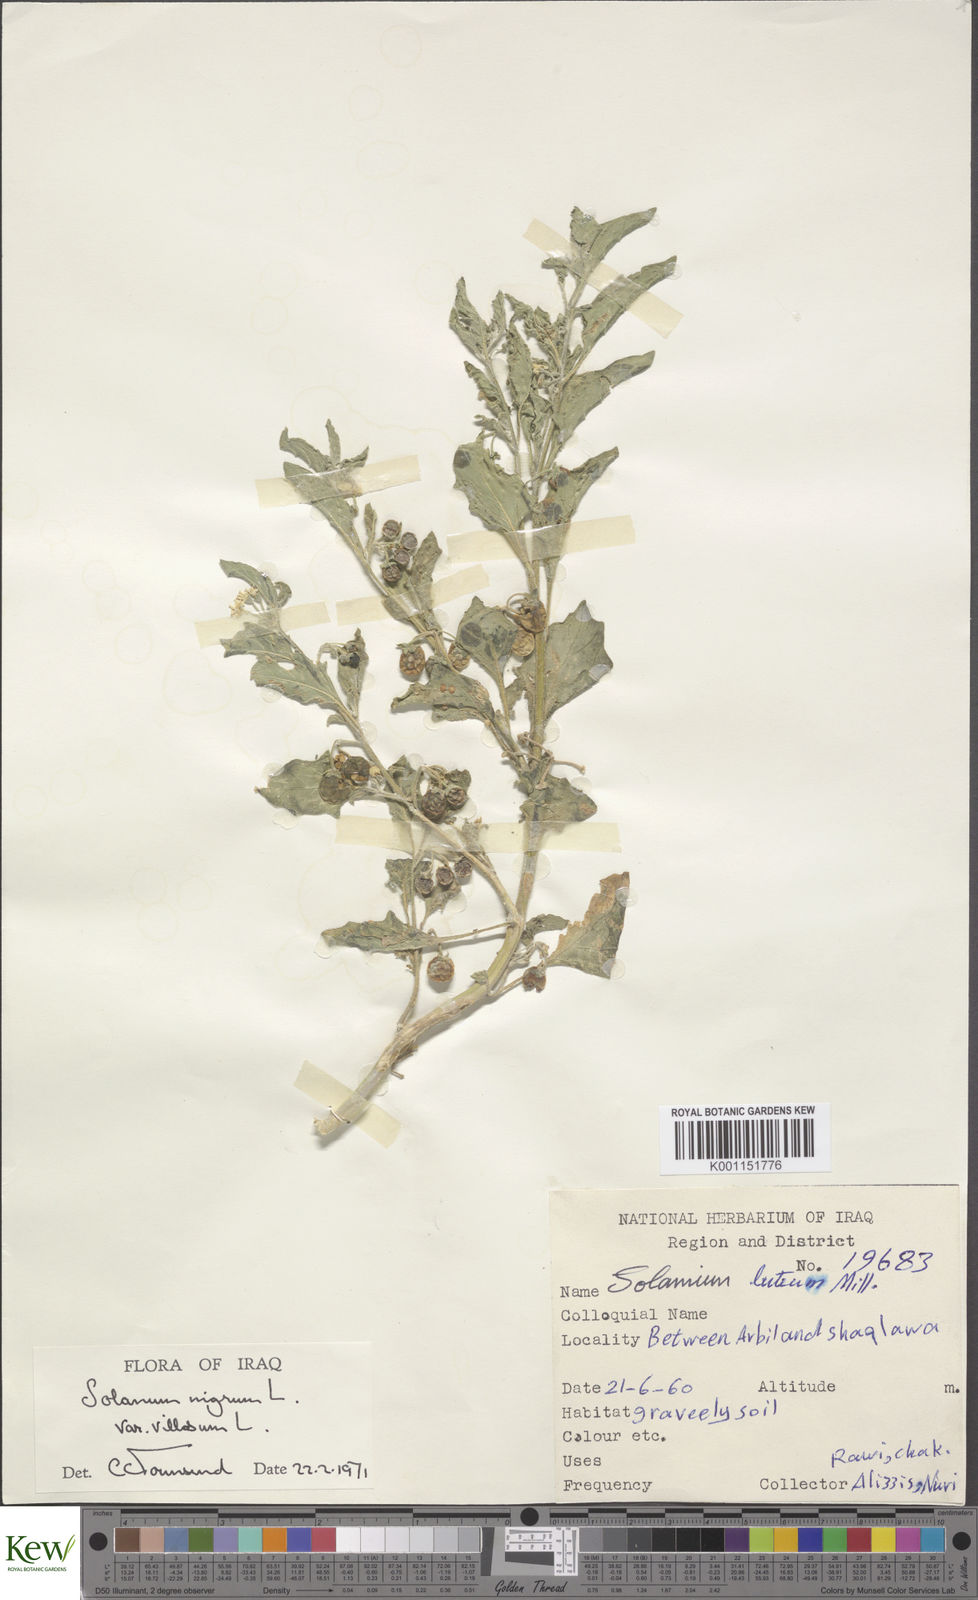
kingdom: Plantae
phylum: Tracheophyta
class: Magnoliopsida
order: Solanales
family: Solanaceae
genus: Solanum
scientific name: Solanum villosum
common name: Red nightshade
